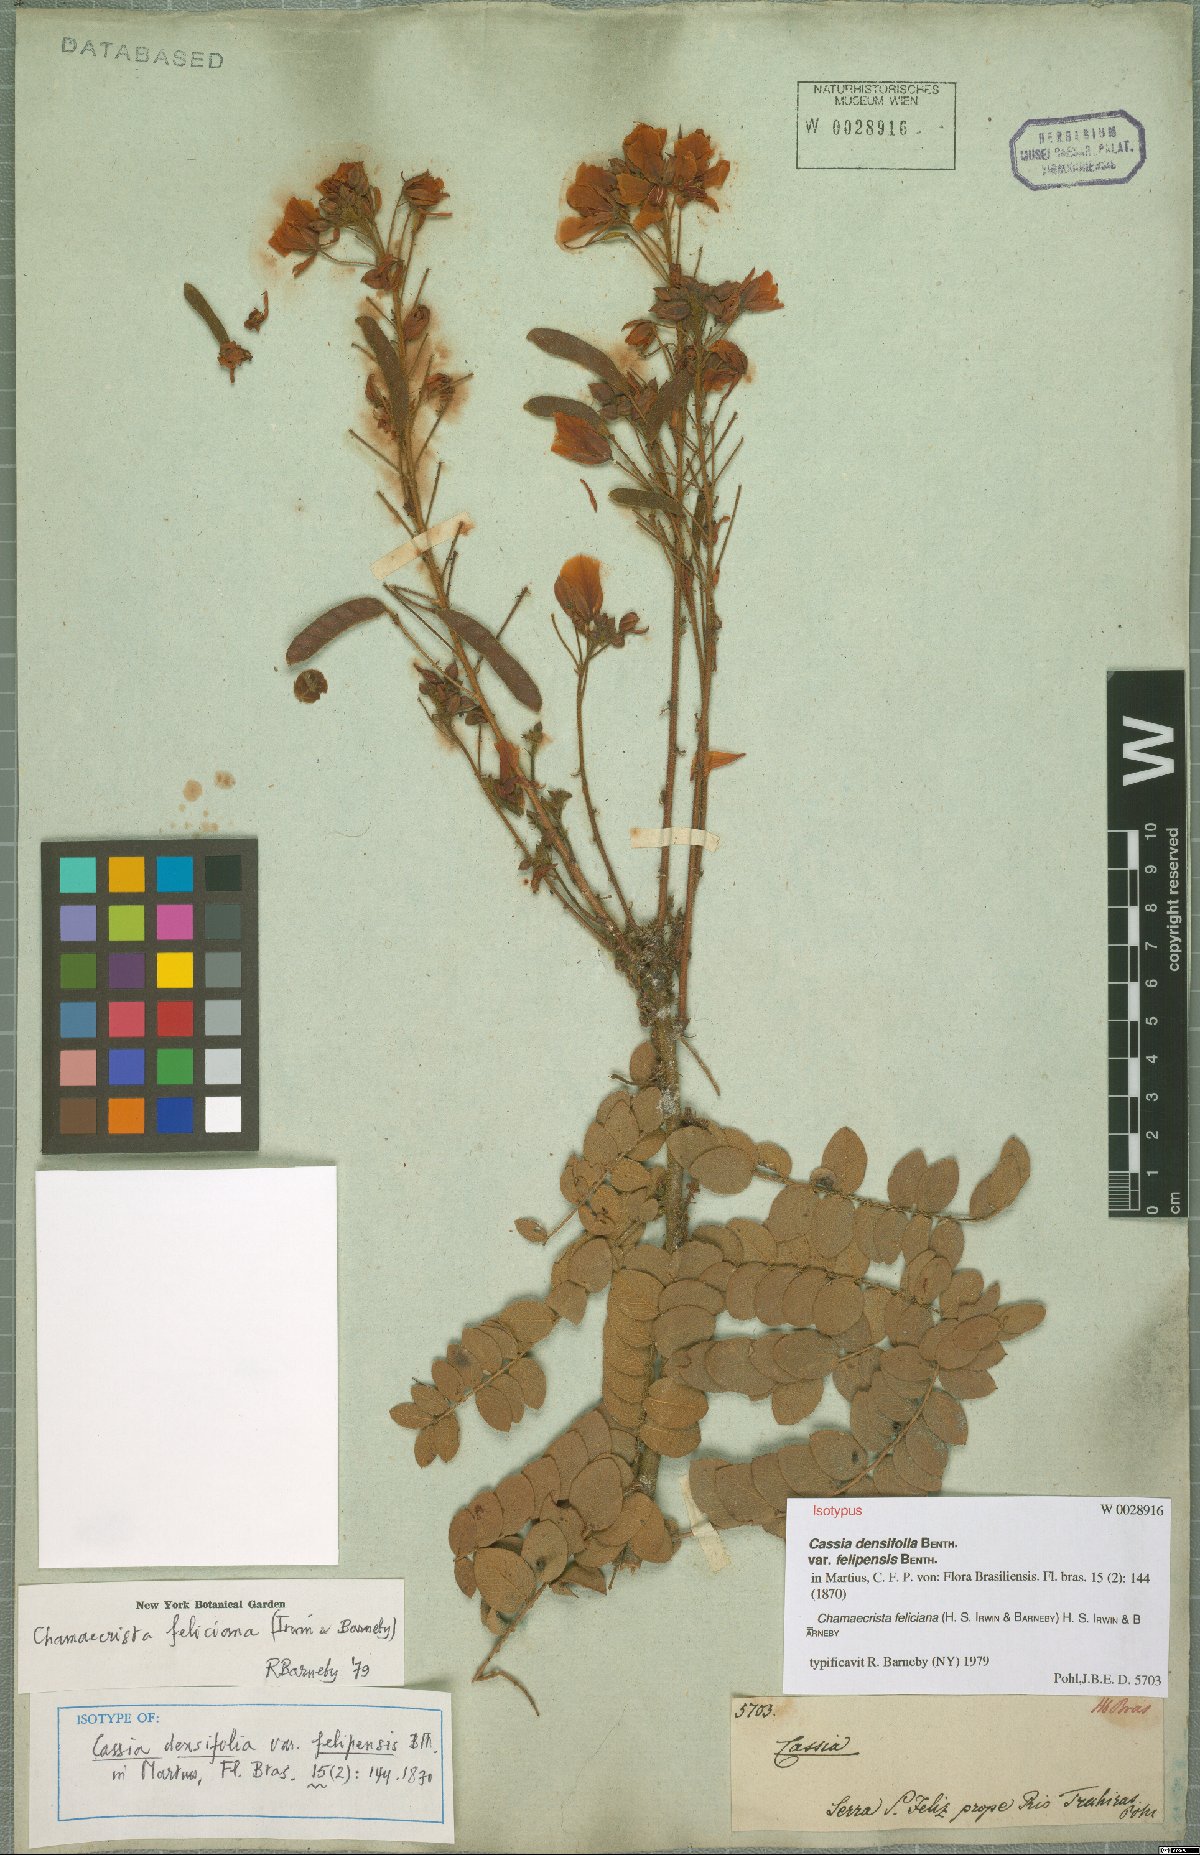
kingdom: Plantae
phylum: Tracheophyta
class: Magnoliopsida
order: Fabales
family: Fabaceae
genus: Chamaecrista
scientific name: Chamaecrista feliciana
